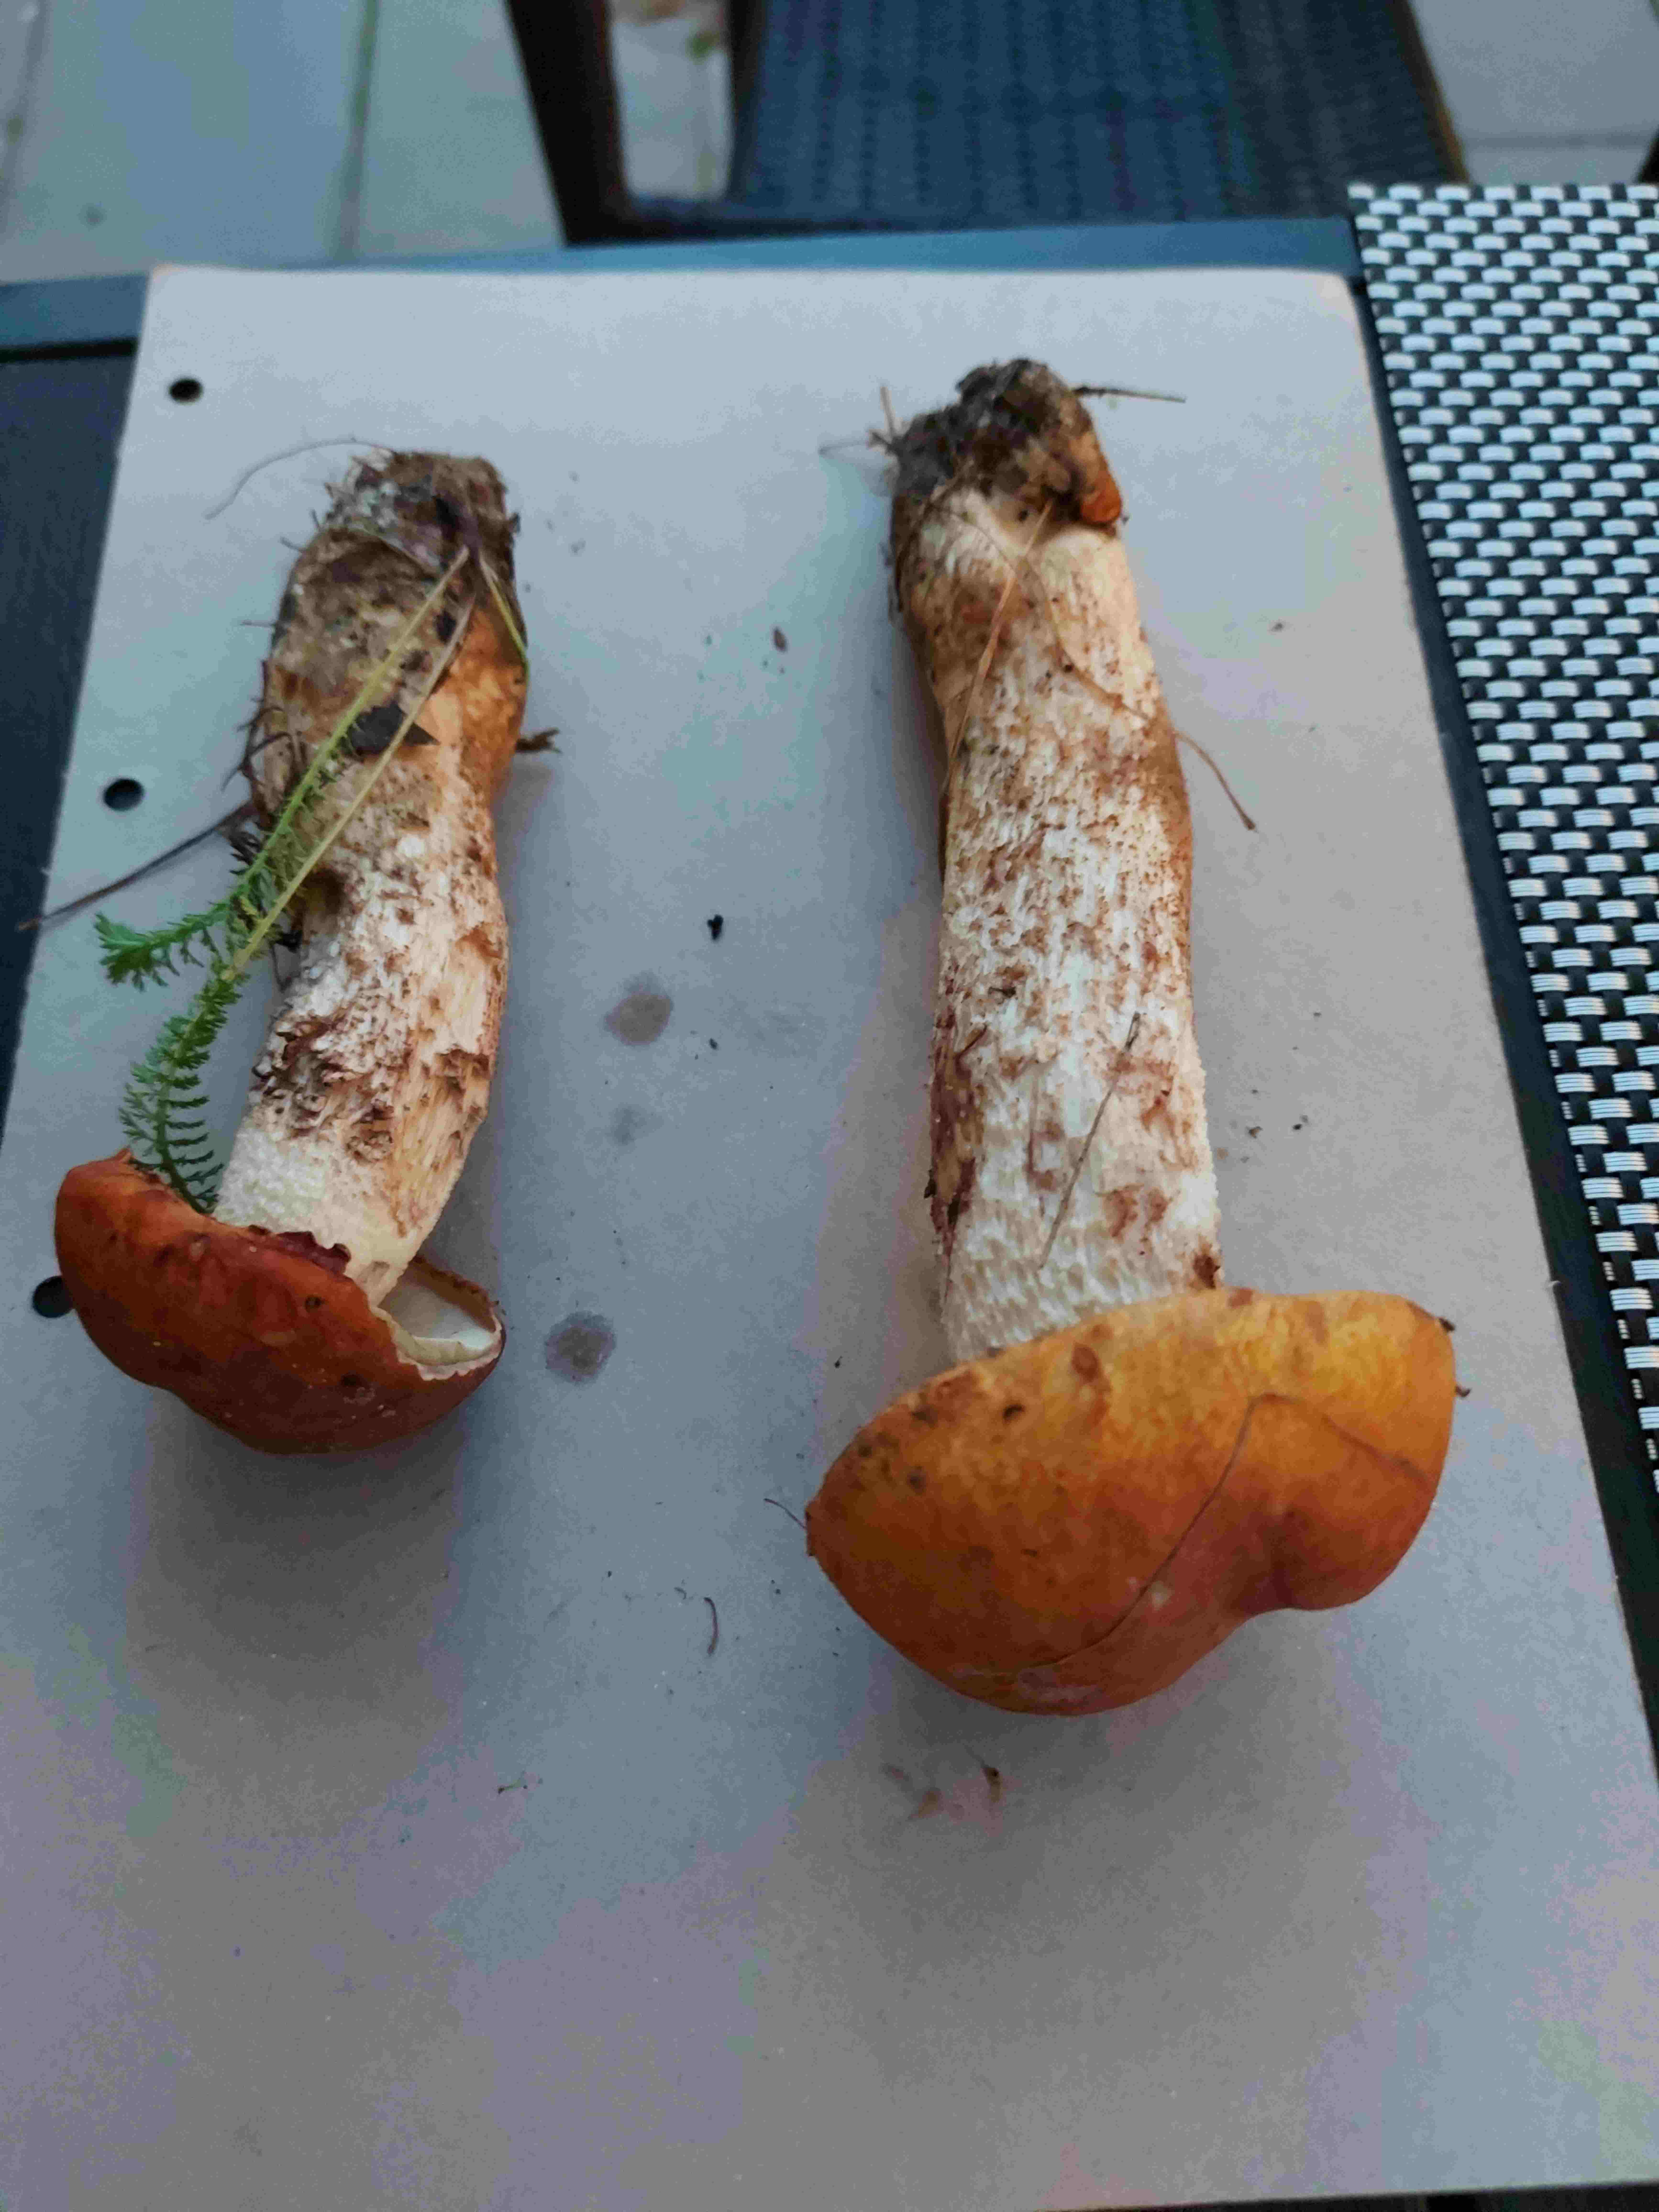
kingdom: Fungi
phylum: Basidiomycota
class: Agaricomycetes
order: Boletales
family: Boletaceae
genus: Leccinum
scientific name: Leccinum albostipitatum
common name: aspe-skælrørhat
